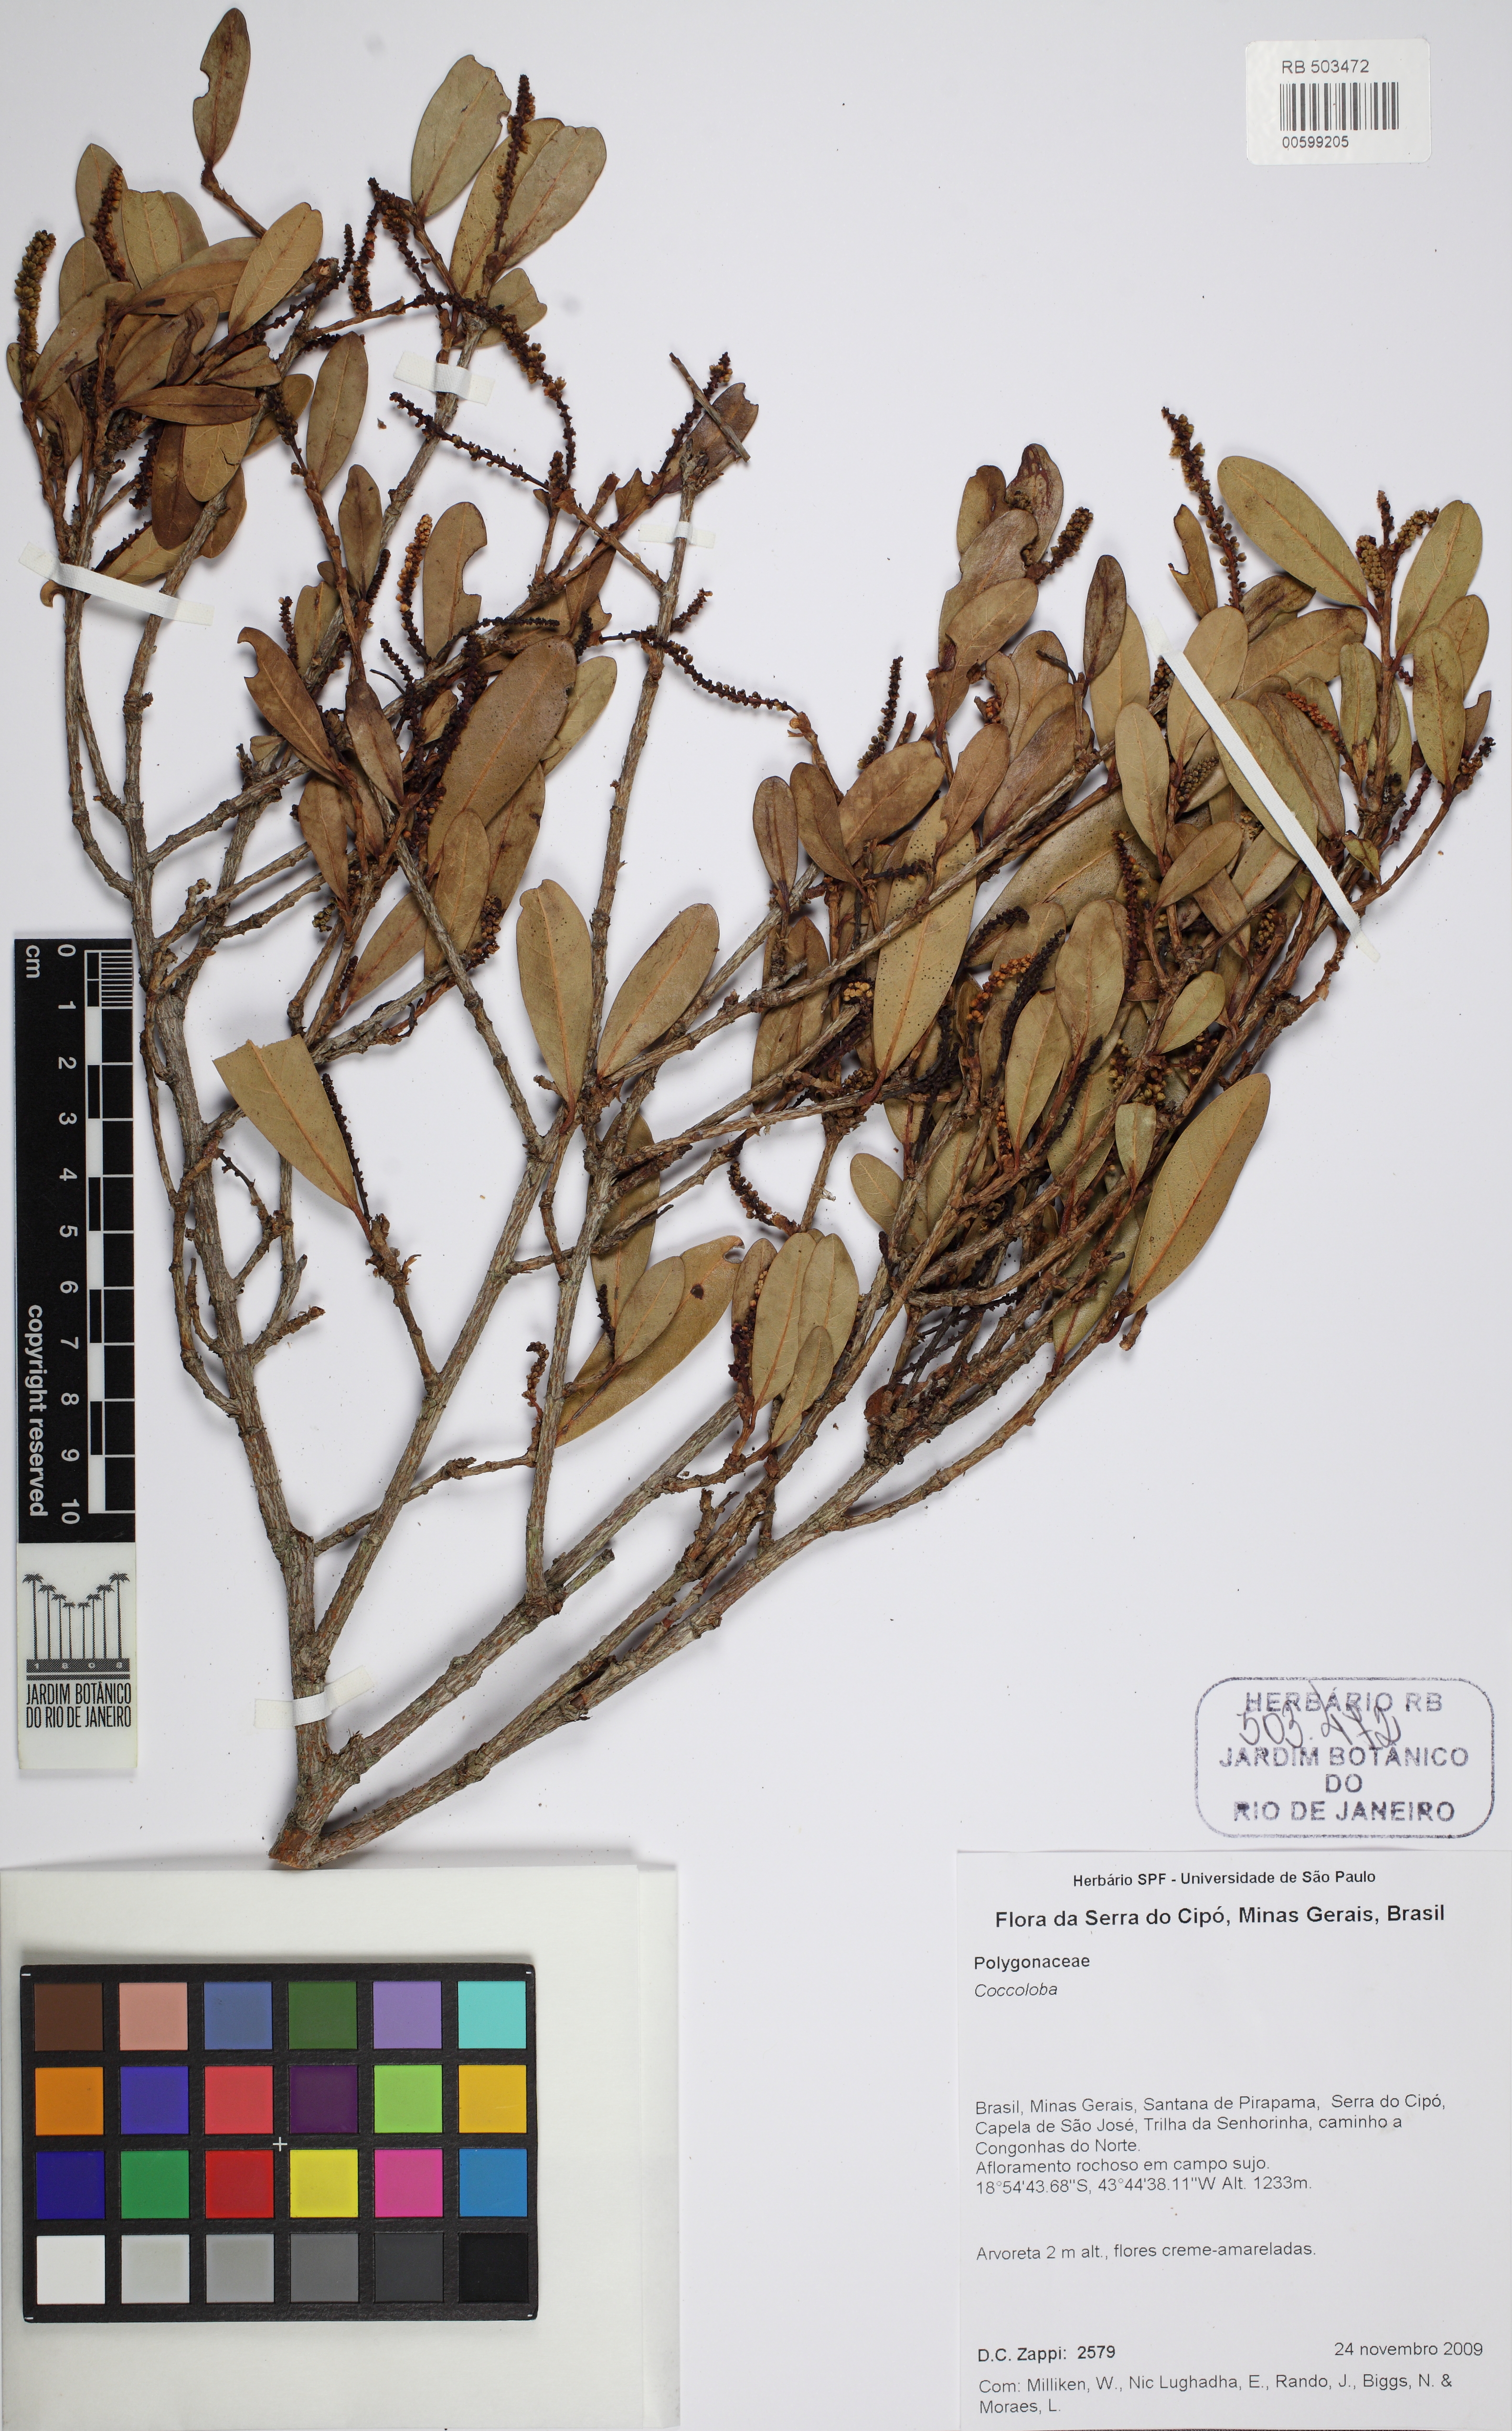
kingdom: Plantae
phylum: Tracheophyta
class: Magnoliopsida
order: Caryophyllales
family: Polygonaceae
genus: Coccoloba
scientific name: Coccoloba
